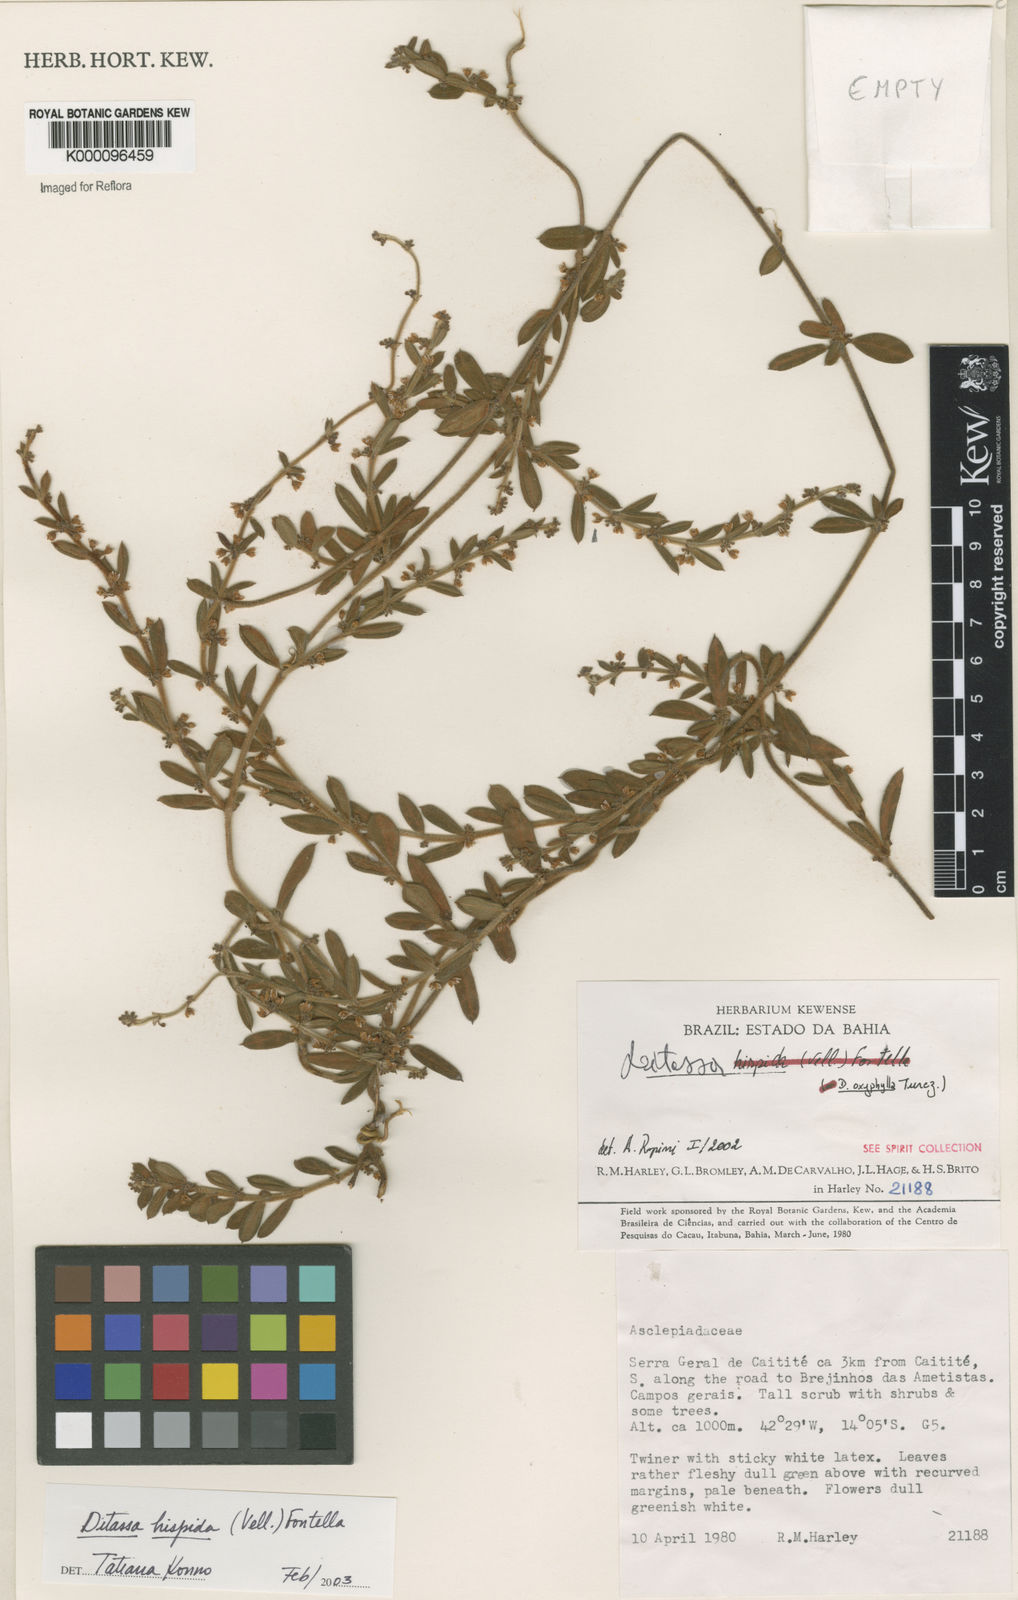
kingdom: Plantae
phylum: Tracheophyta
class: Magnoliopsida
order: Gentianales
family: Apocynaceae
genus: Ditassa
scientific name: Ditassa hispida
